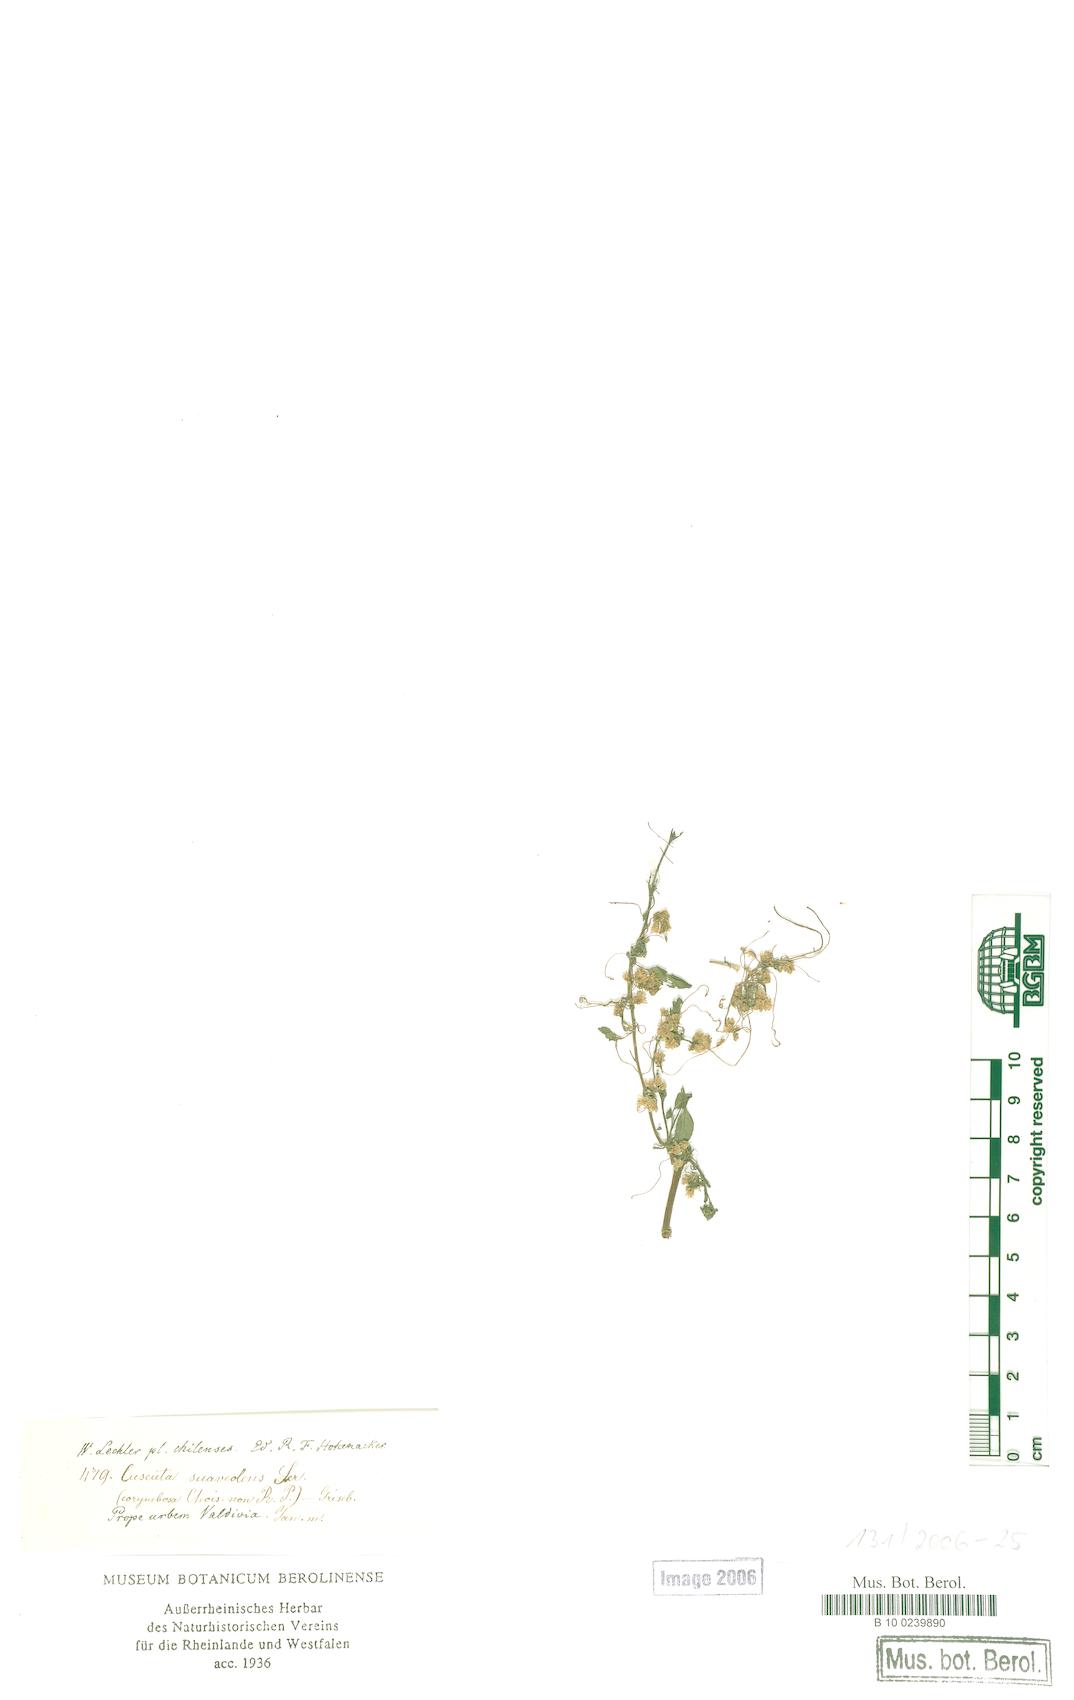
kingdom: Plantae
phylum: Tracheophyta
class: Magnoliopsida
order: Solanales
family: Convolvulaceae
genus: Cuscuta
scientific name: Cuscuta suaveolens
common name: Fringed dodder
